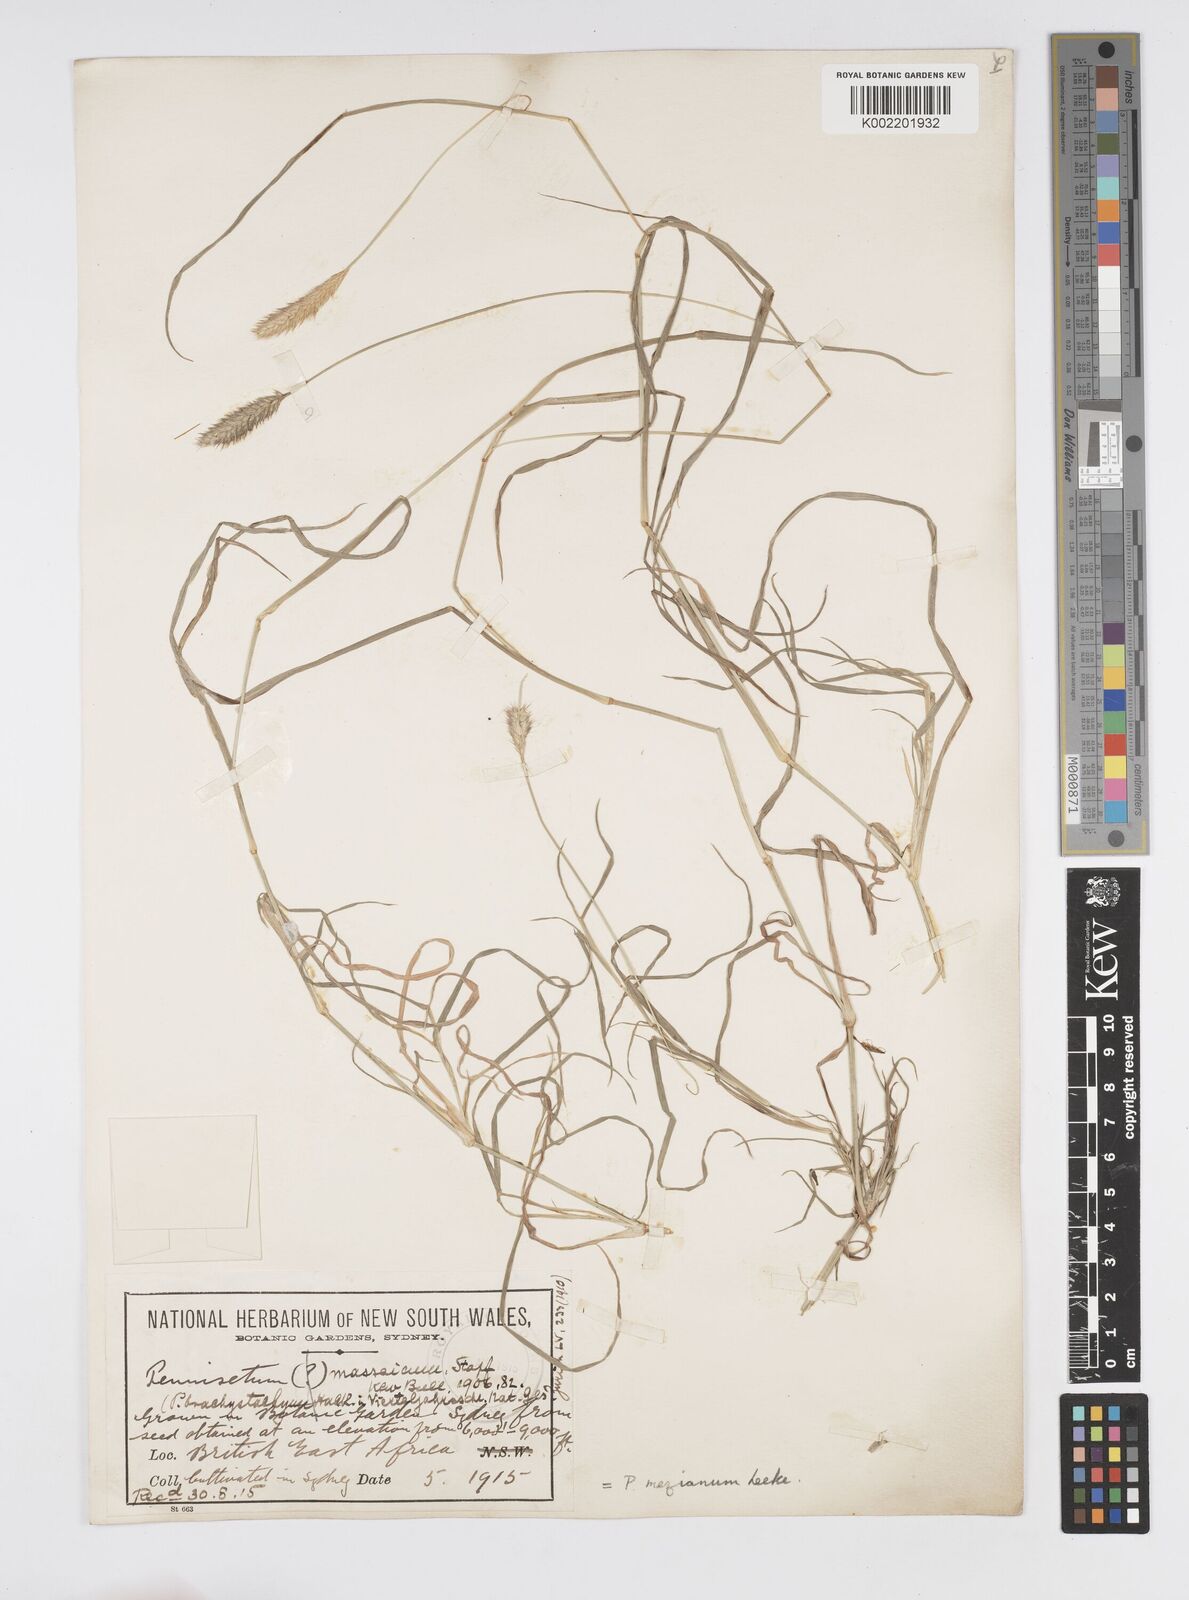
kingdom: Plantae
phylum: Tracheophyta
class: Liliopsida
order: Poales
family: Poaceae
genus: Cenchrus
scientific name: Cenchrus mezianus
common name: Bamboo grass
